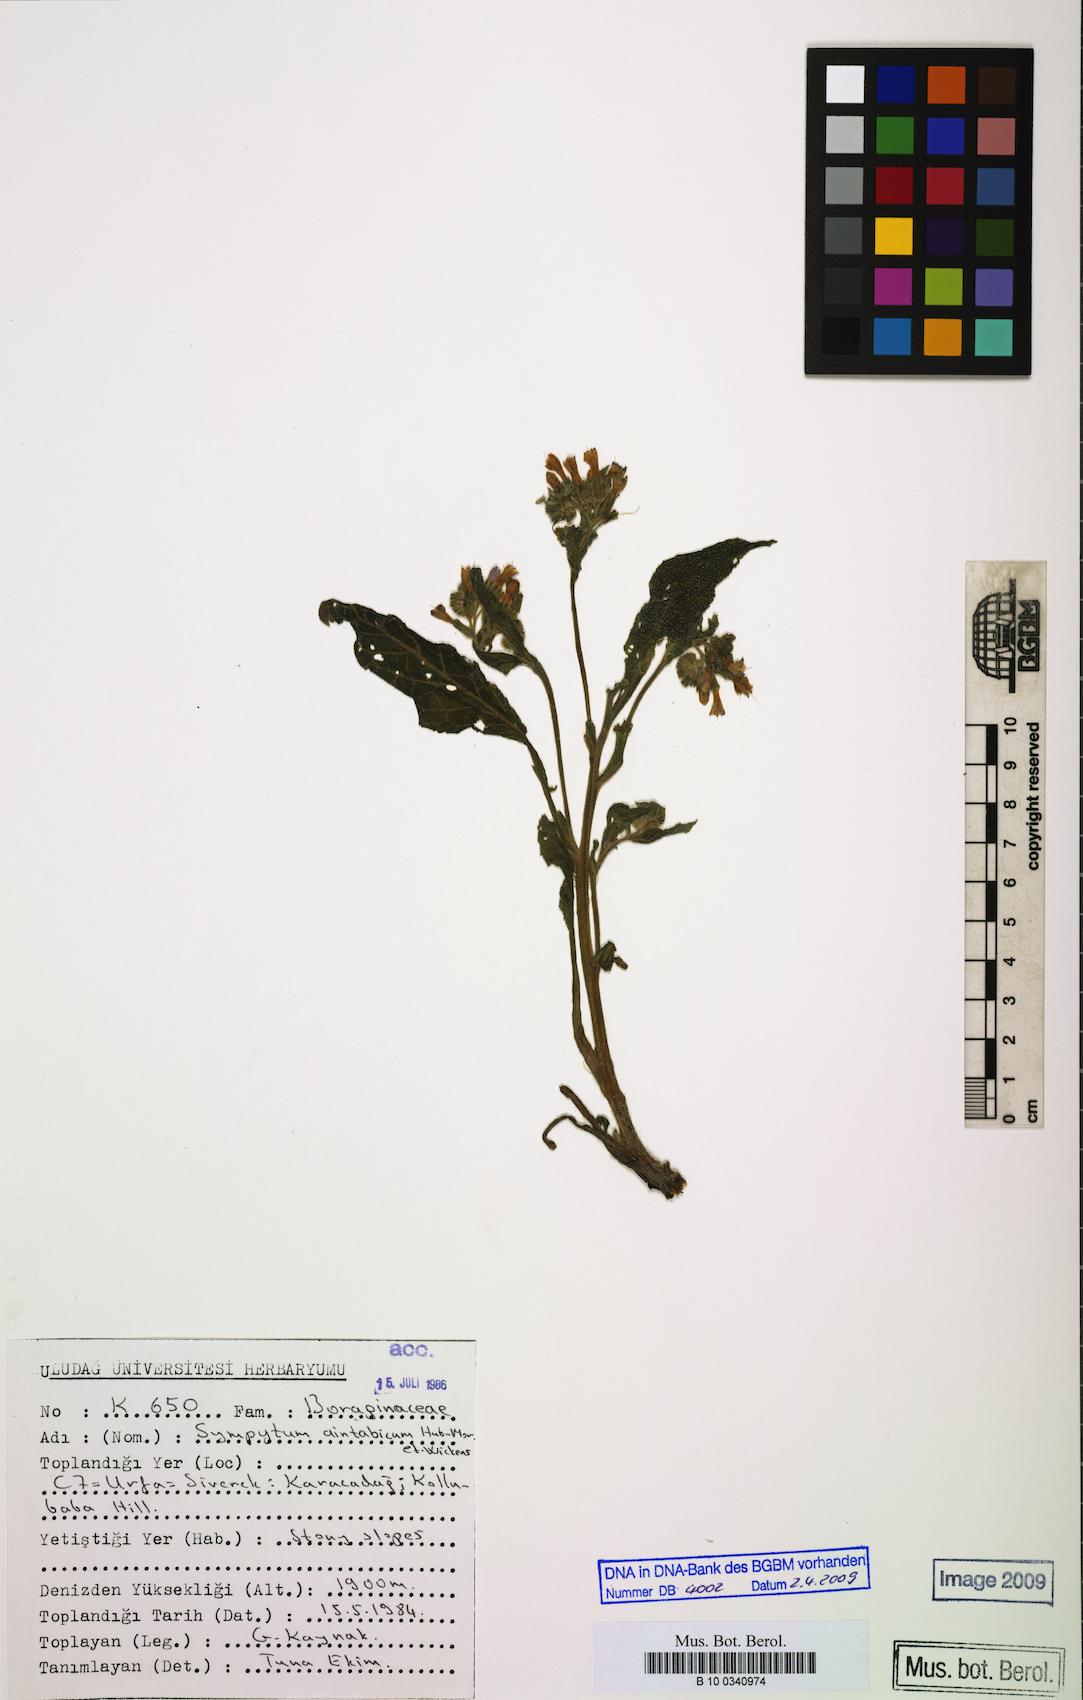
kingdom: Plantae
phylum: Tracheophyta
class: Magnoliopsida
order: Boraginales
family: Boraginaceae
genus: Symphytum
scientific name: Symphytum aintabicum
